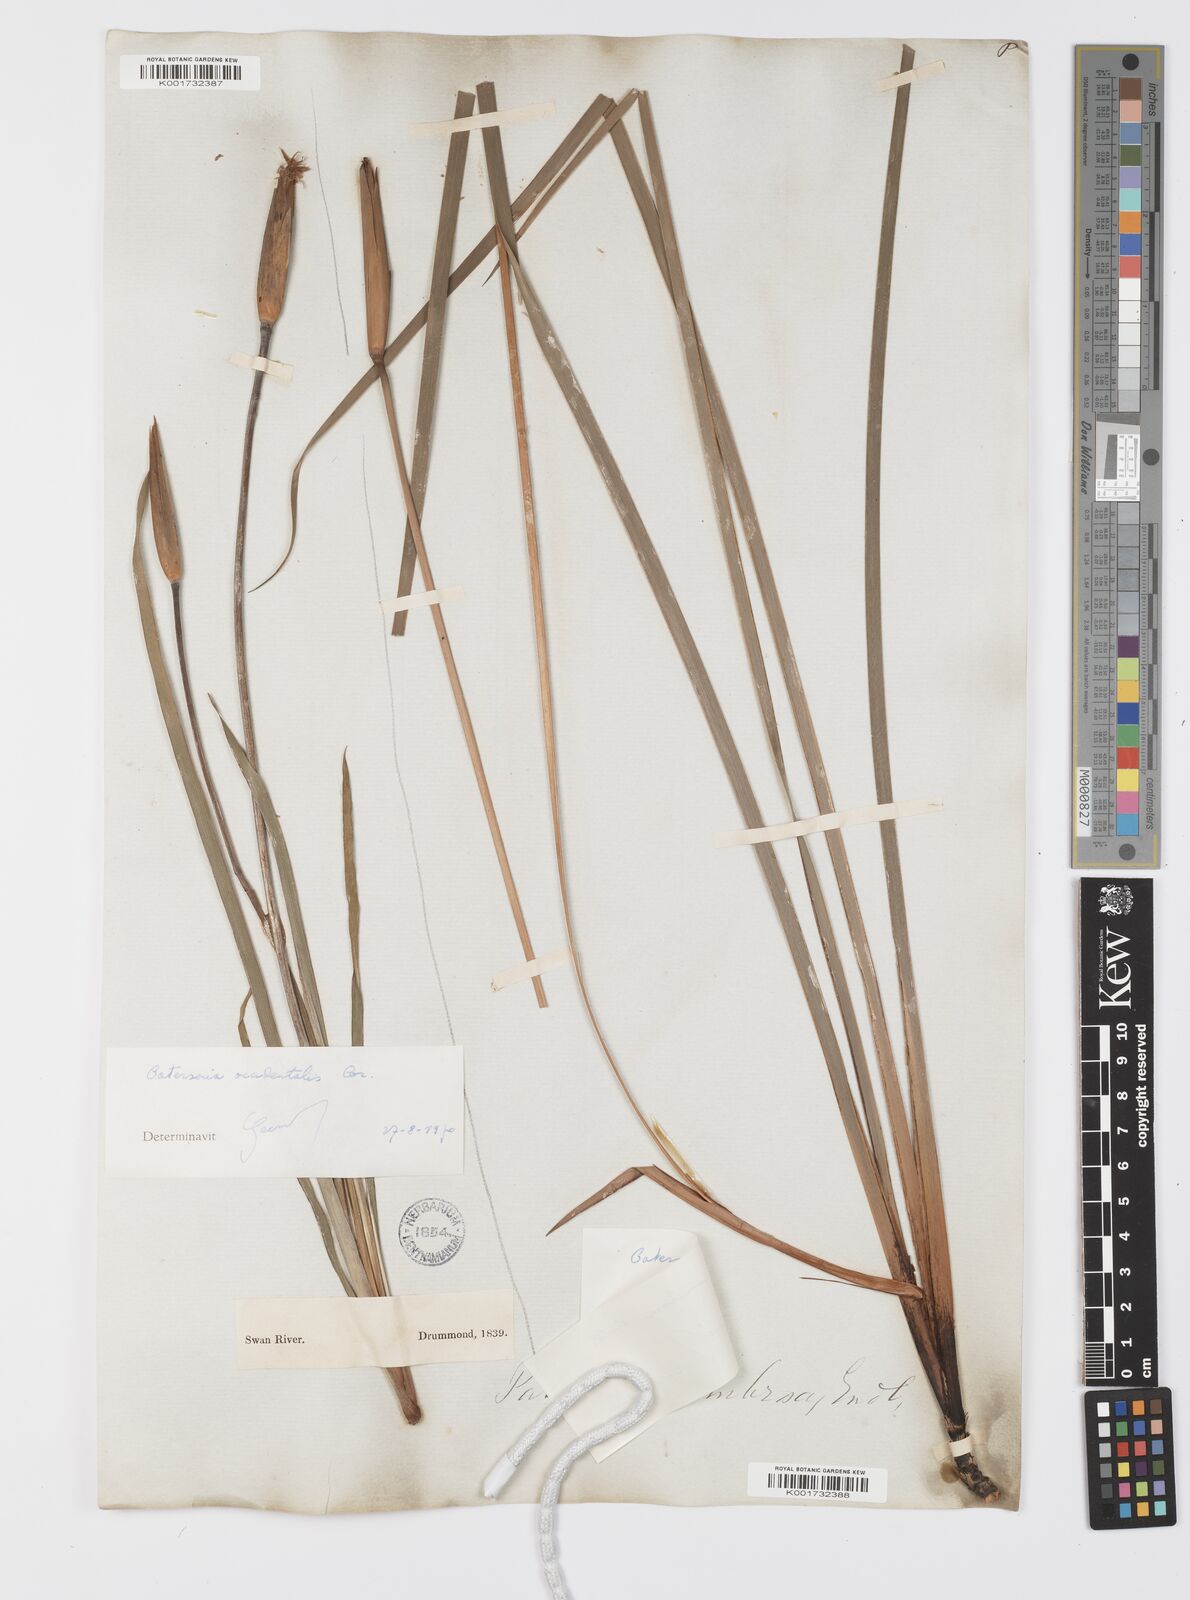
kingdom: Plantae
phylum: Tracheophyta
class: Liliopsida
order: Asparagales
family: Iridaceae
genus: Patersonia
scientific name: Patersonia umbrosa
